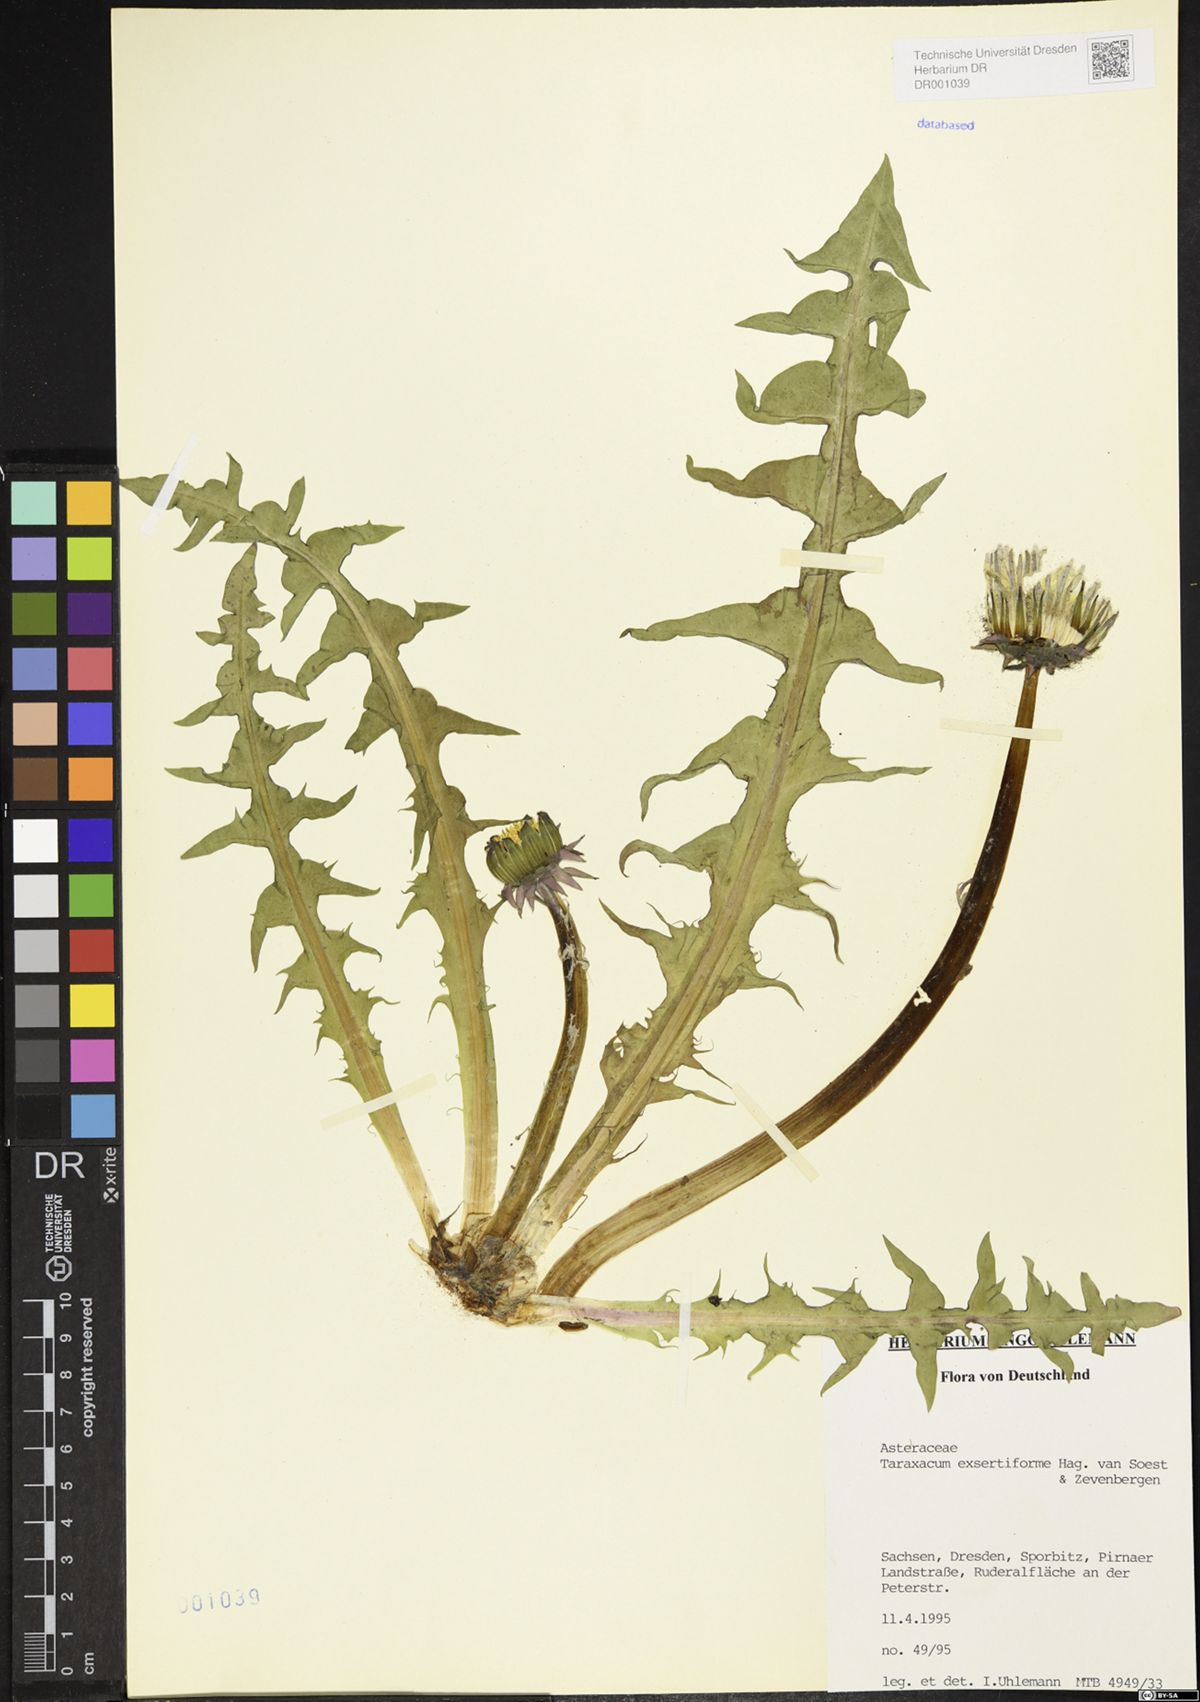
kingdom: Plantae
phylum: Tracheophyta
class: Magnoliopsida
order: Asterales
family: Asteraceae
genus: Taraxacum
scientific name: Taraxacum exsertiforme
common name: Erect-bracted dandelion
